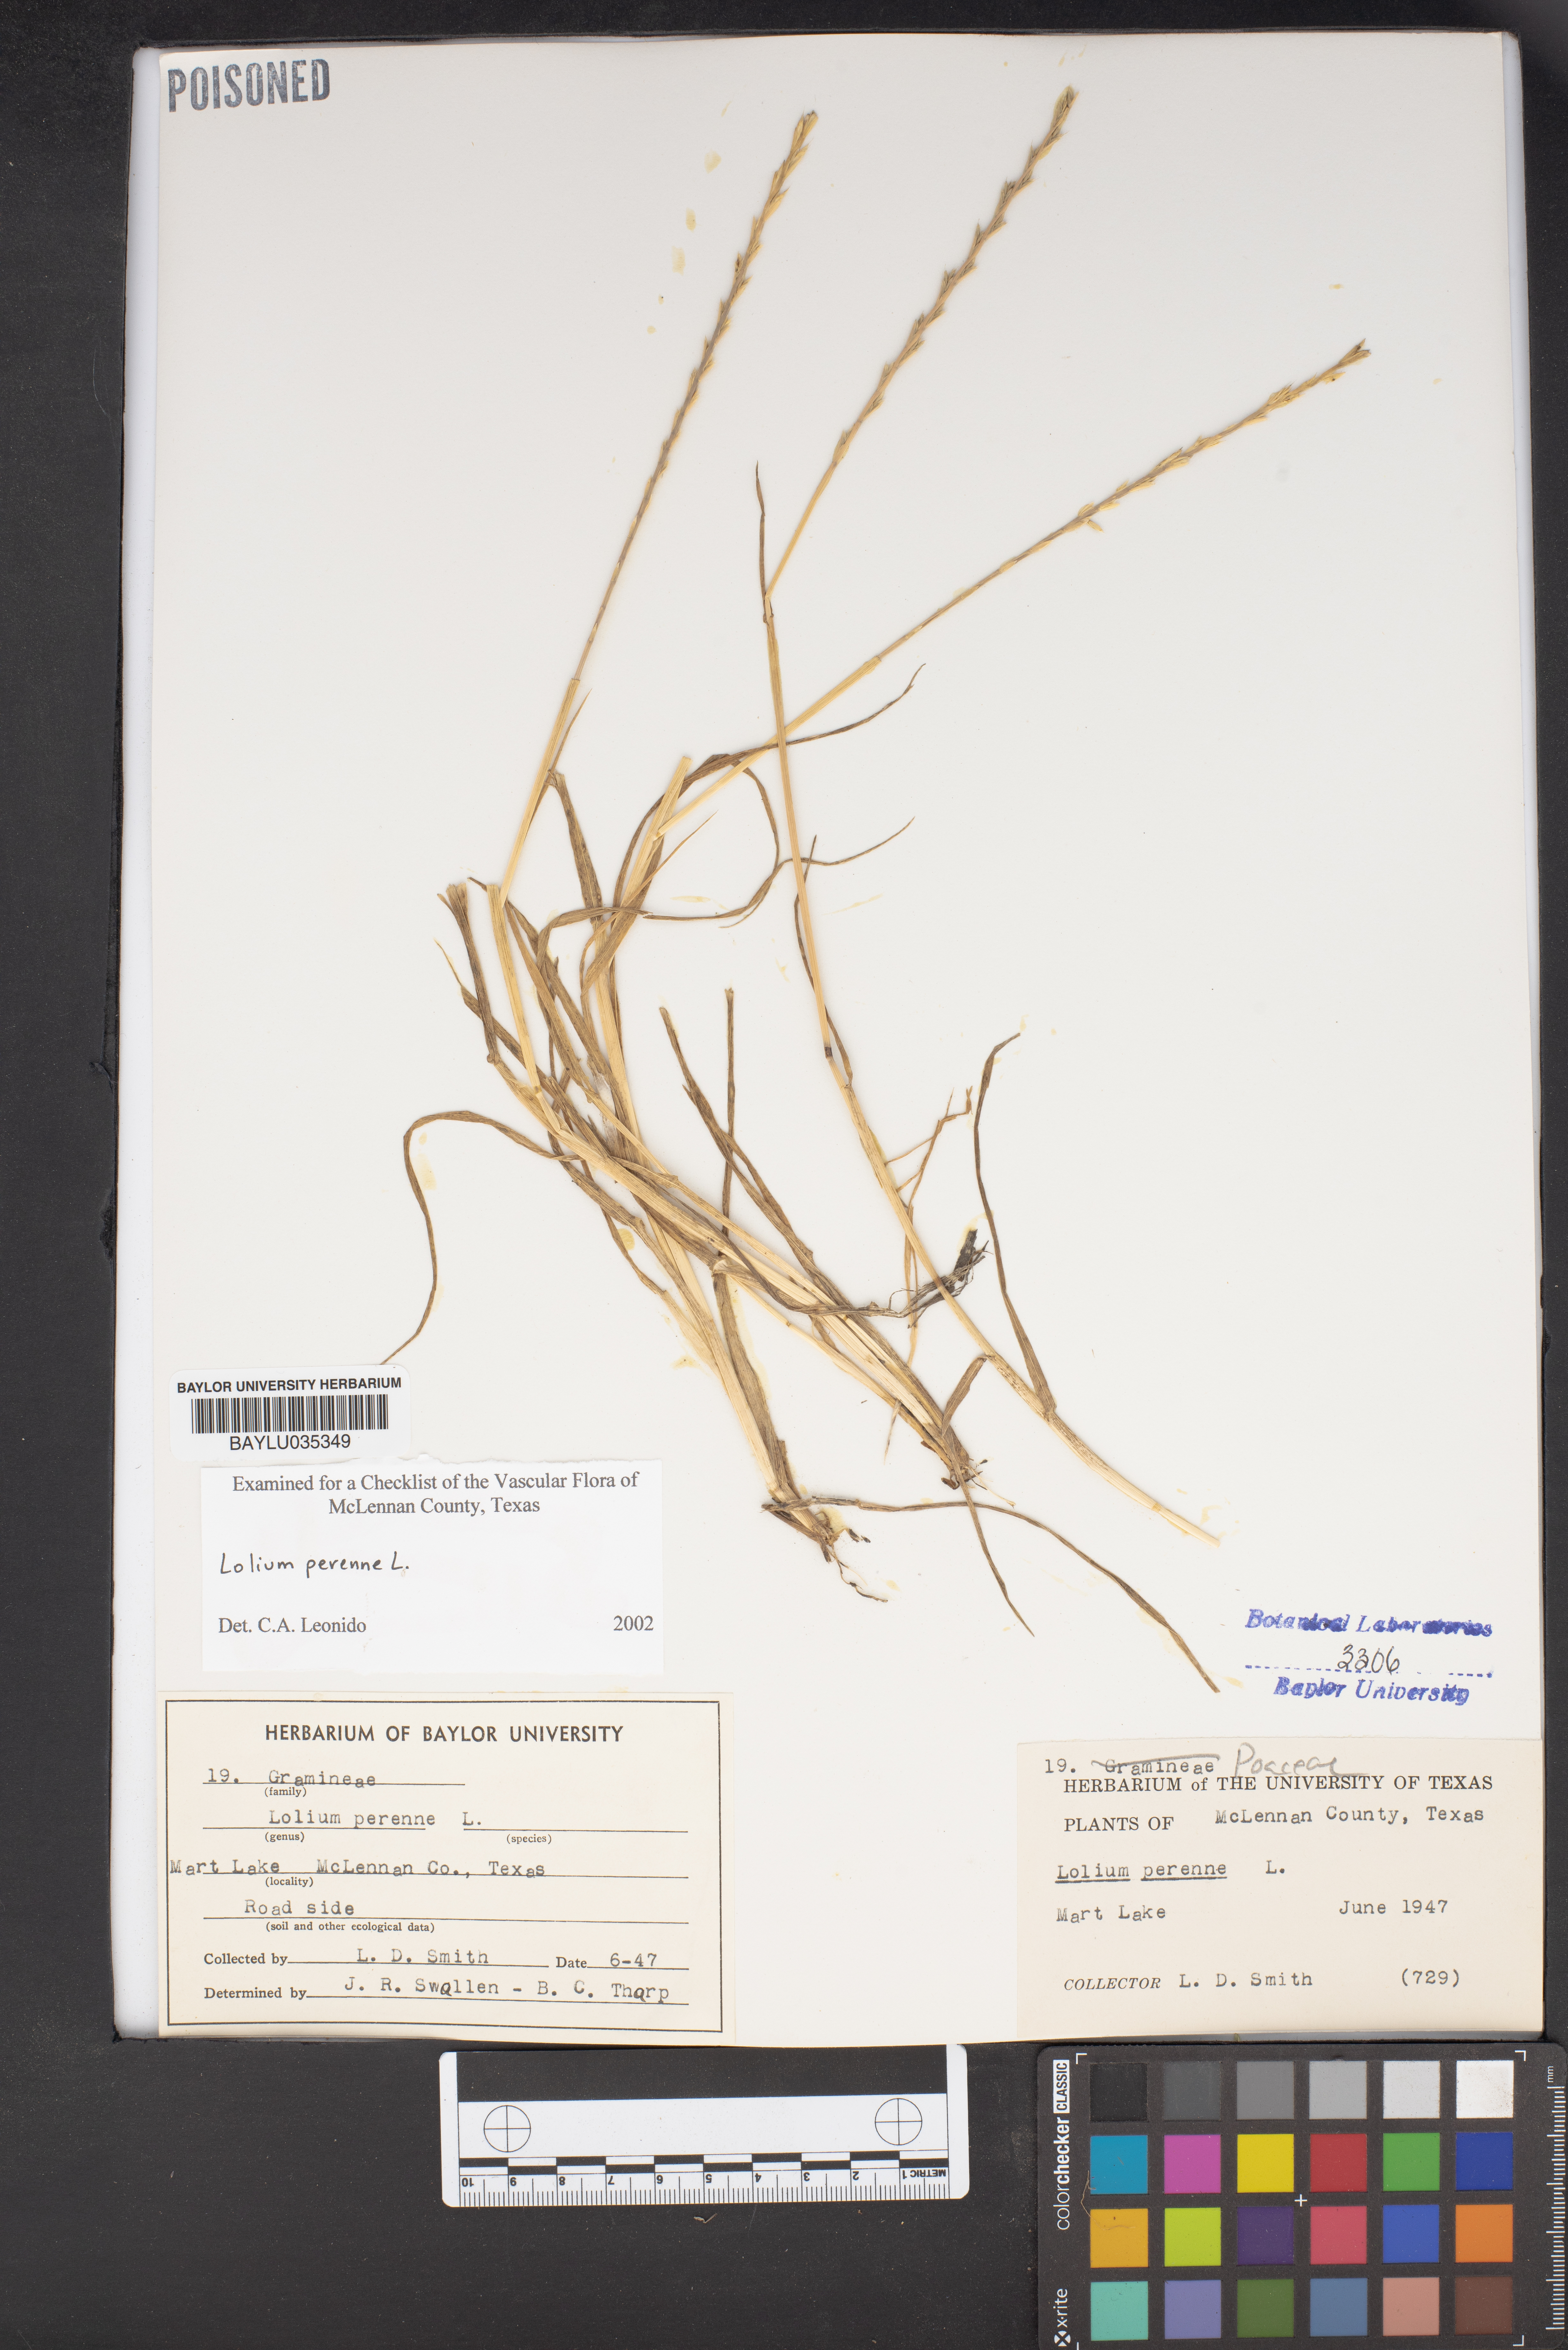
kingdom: Plantae
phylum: Tracheophyta
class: Liliopsida
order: Poales
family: Poaceae
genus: Lolium
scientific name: Lolium perenne
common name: Perennial ryegrass
